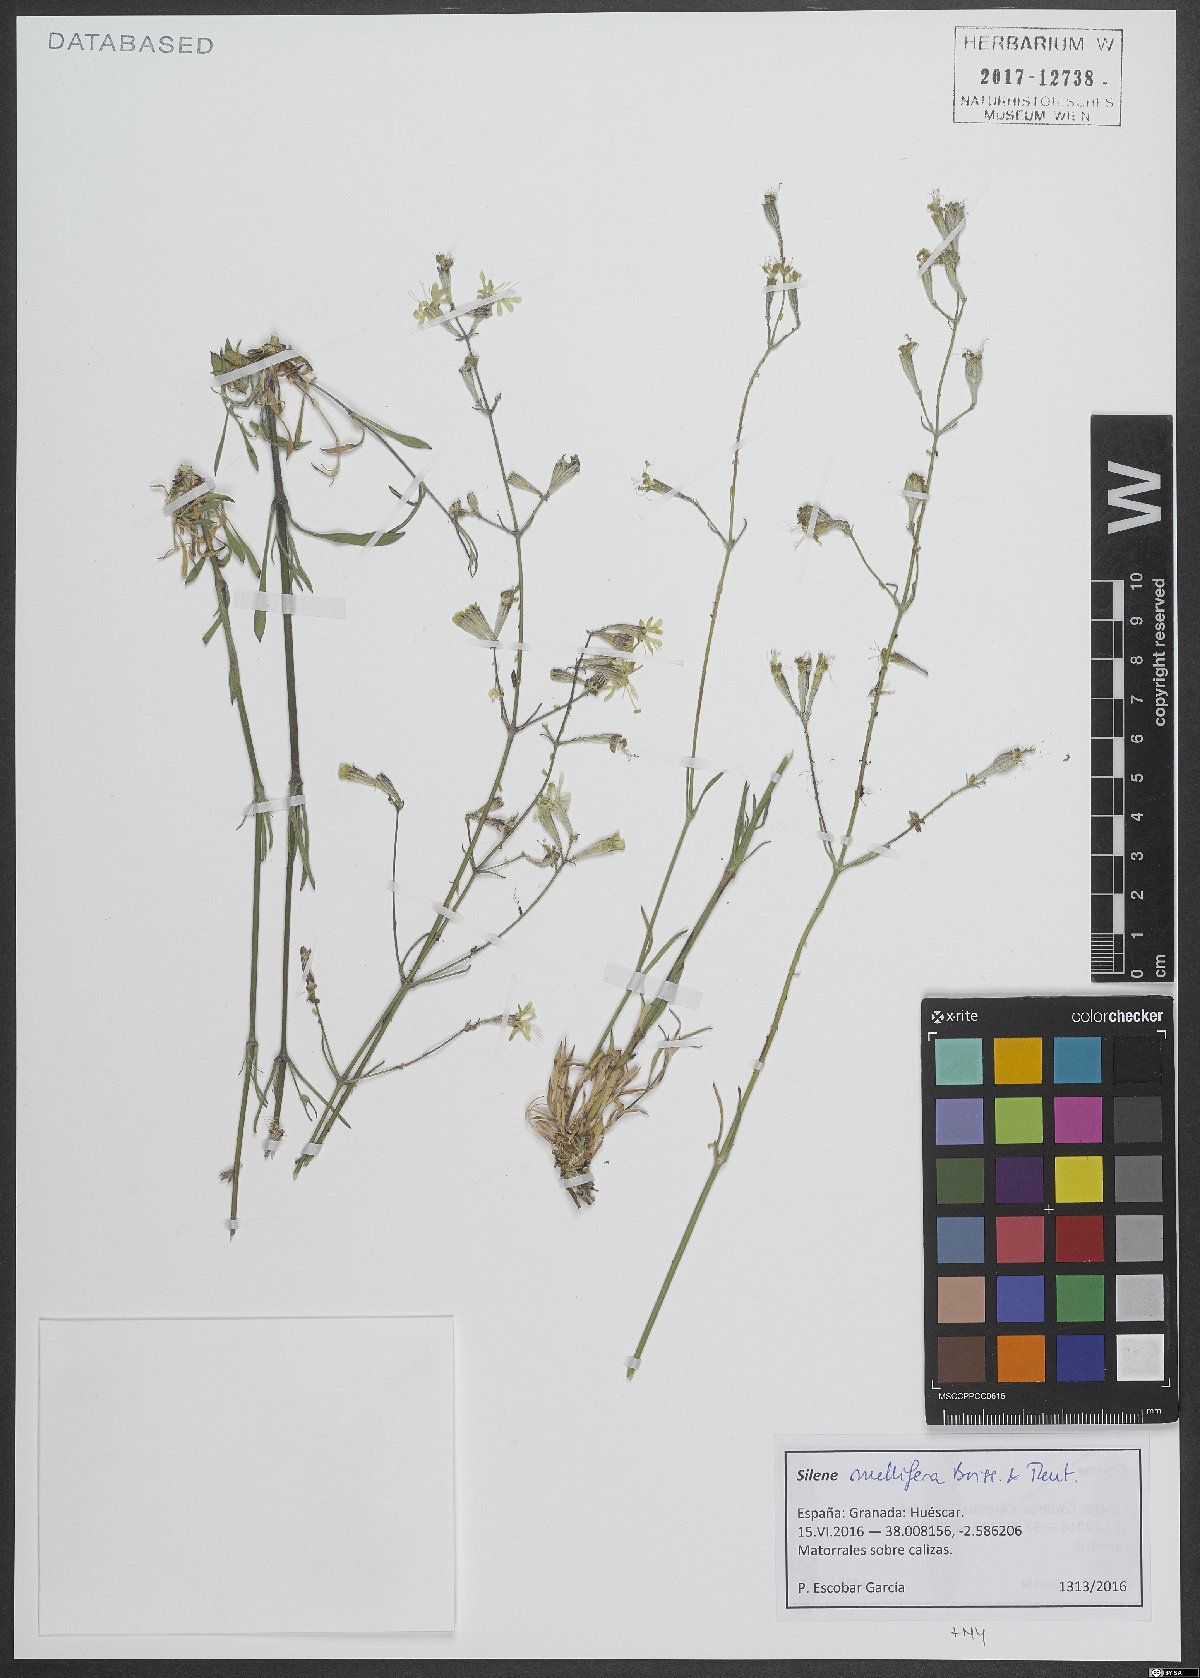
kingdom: Plantae
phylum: Tracheophyta
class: Magnoliopsida
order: Caryophyllales
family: Caryophyllaceae
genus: Silene
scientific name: Silene mellifera
